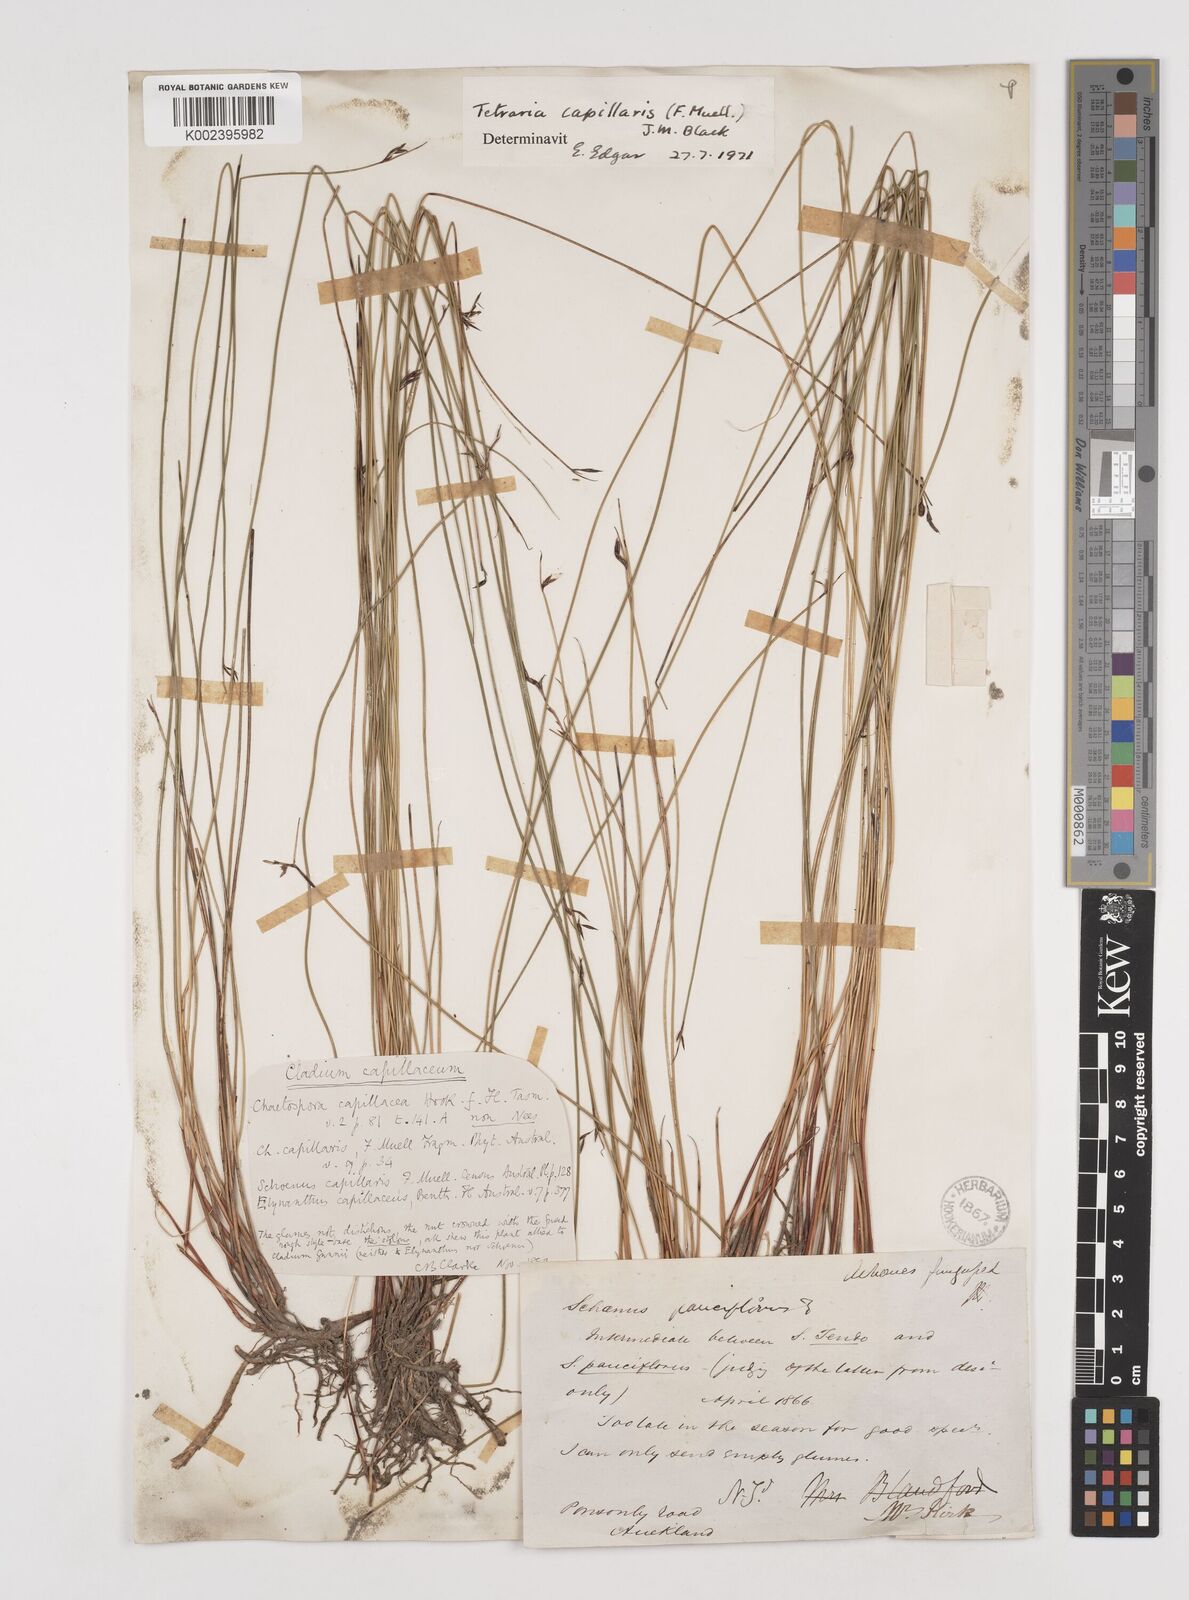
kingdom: Plantae
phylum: Tracheophyta
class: Liliopsida
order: Poales
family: Cyperaceae
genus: Tetraria
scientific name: Tetraria capillaris
